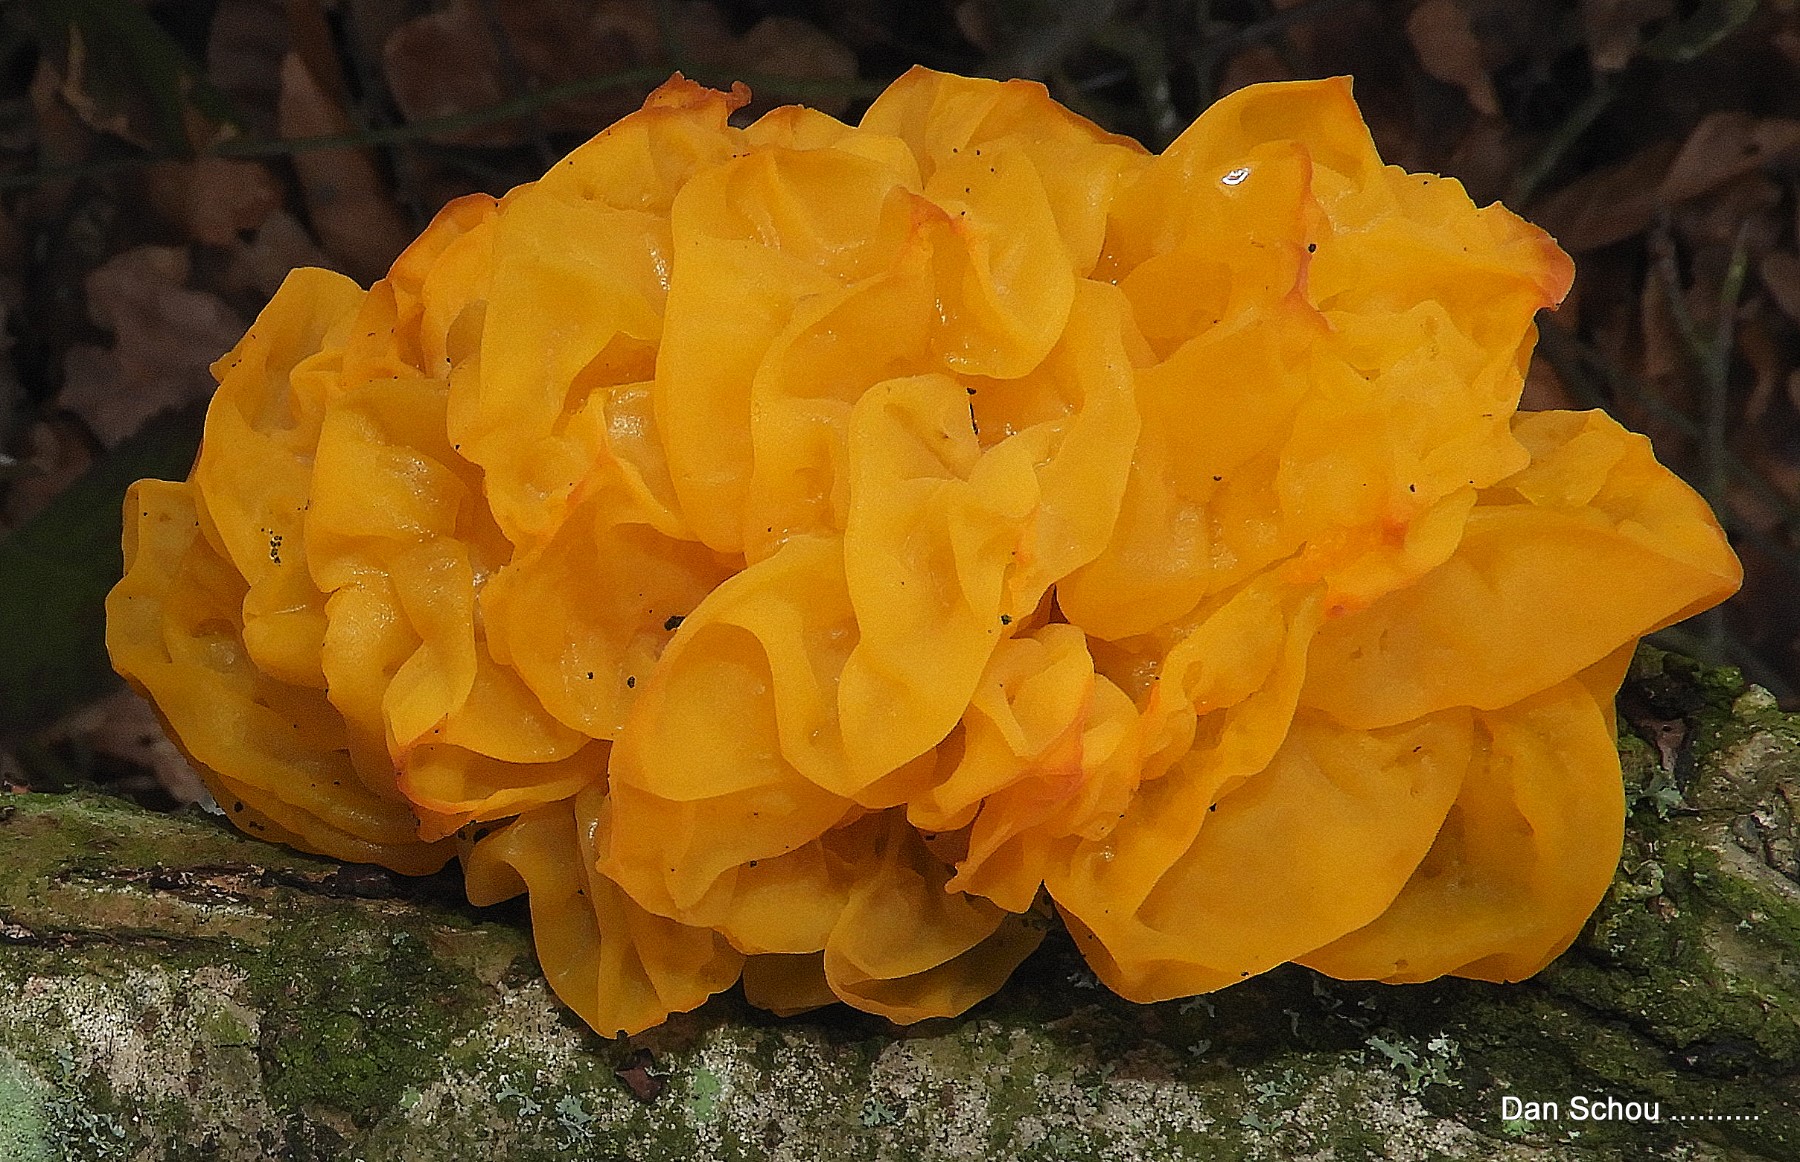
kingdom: Fungi
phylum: Basidiomycota
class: Tremellomycetes
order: Tremellales
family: Tremellaceae
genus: Tremella
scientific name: Tremella mesenterica
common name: gul bævresvamp
